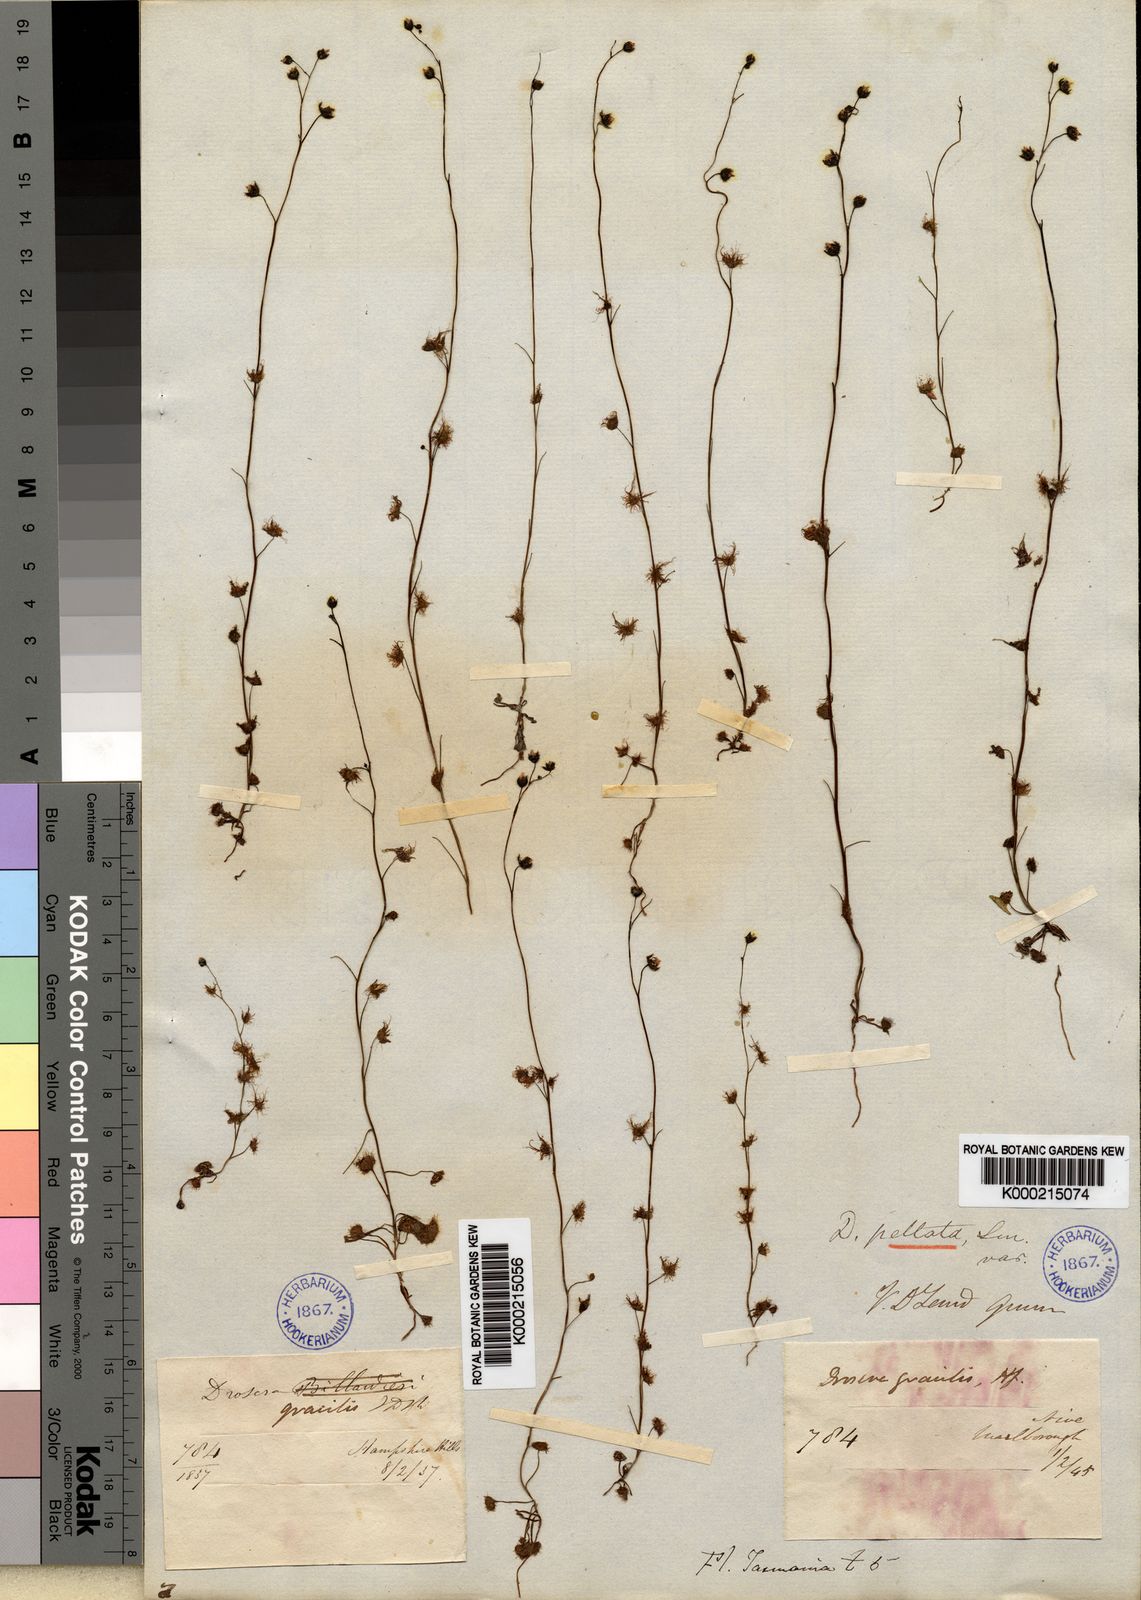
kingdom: Plantae
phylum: Tracheophyta
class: Magnoliopsida
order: Caryophyllales
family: Droseraceae
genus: Drosera
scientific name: Drosera peltata
